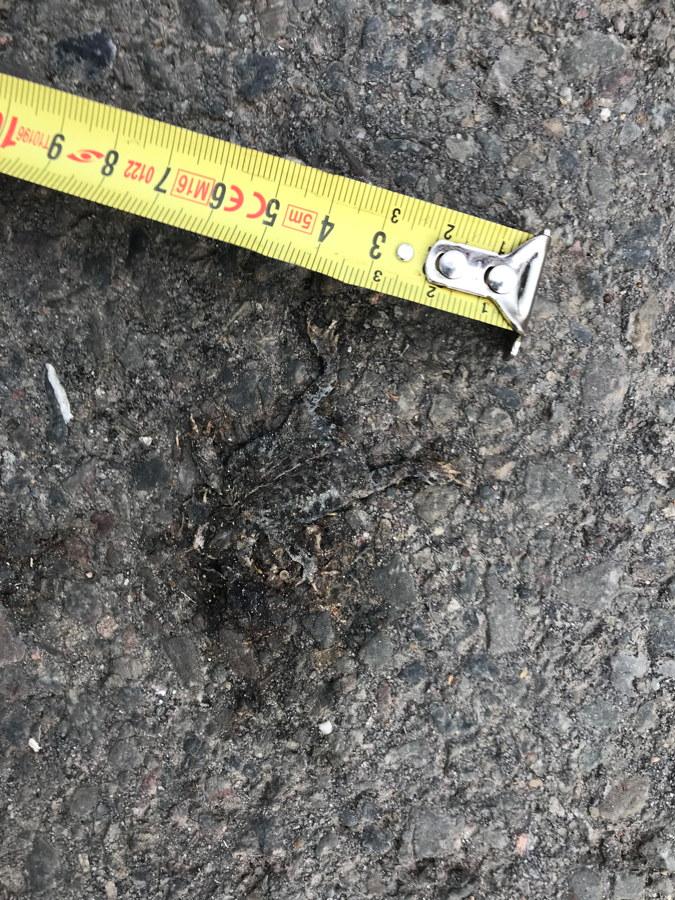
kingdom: Animalia
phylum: Chordata
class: Amphibia
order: Anura
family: Bufonidae
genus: Epidalea
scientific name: Epidalea calamita
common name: Natterjack toad
